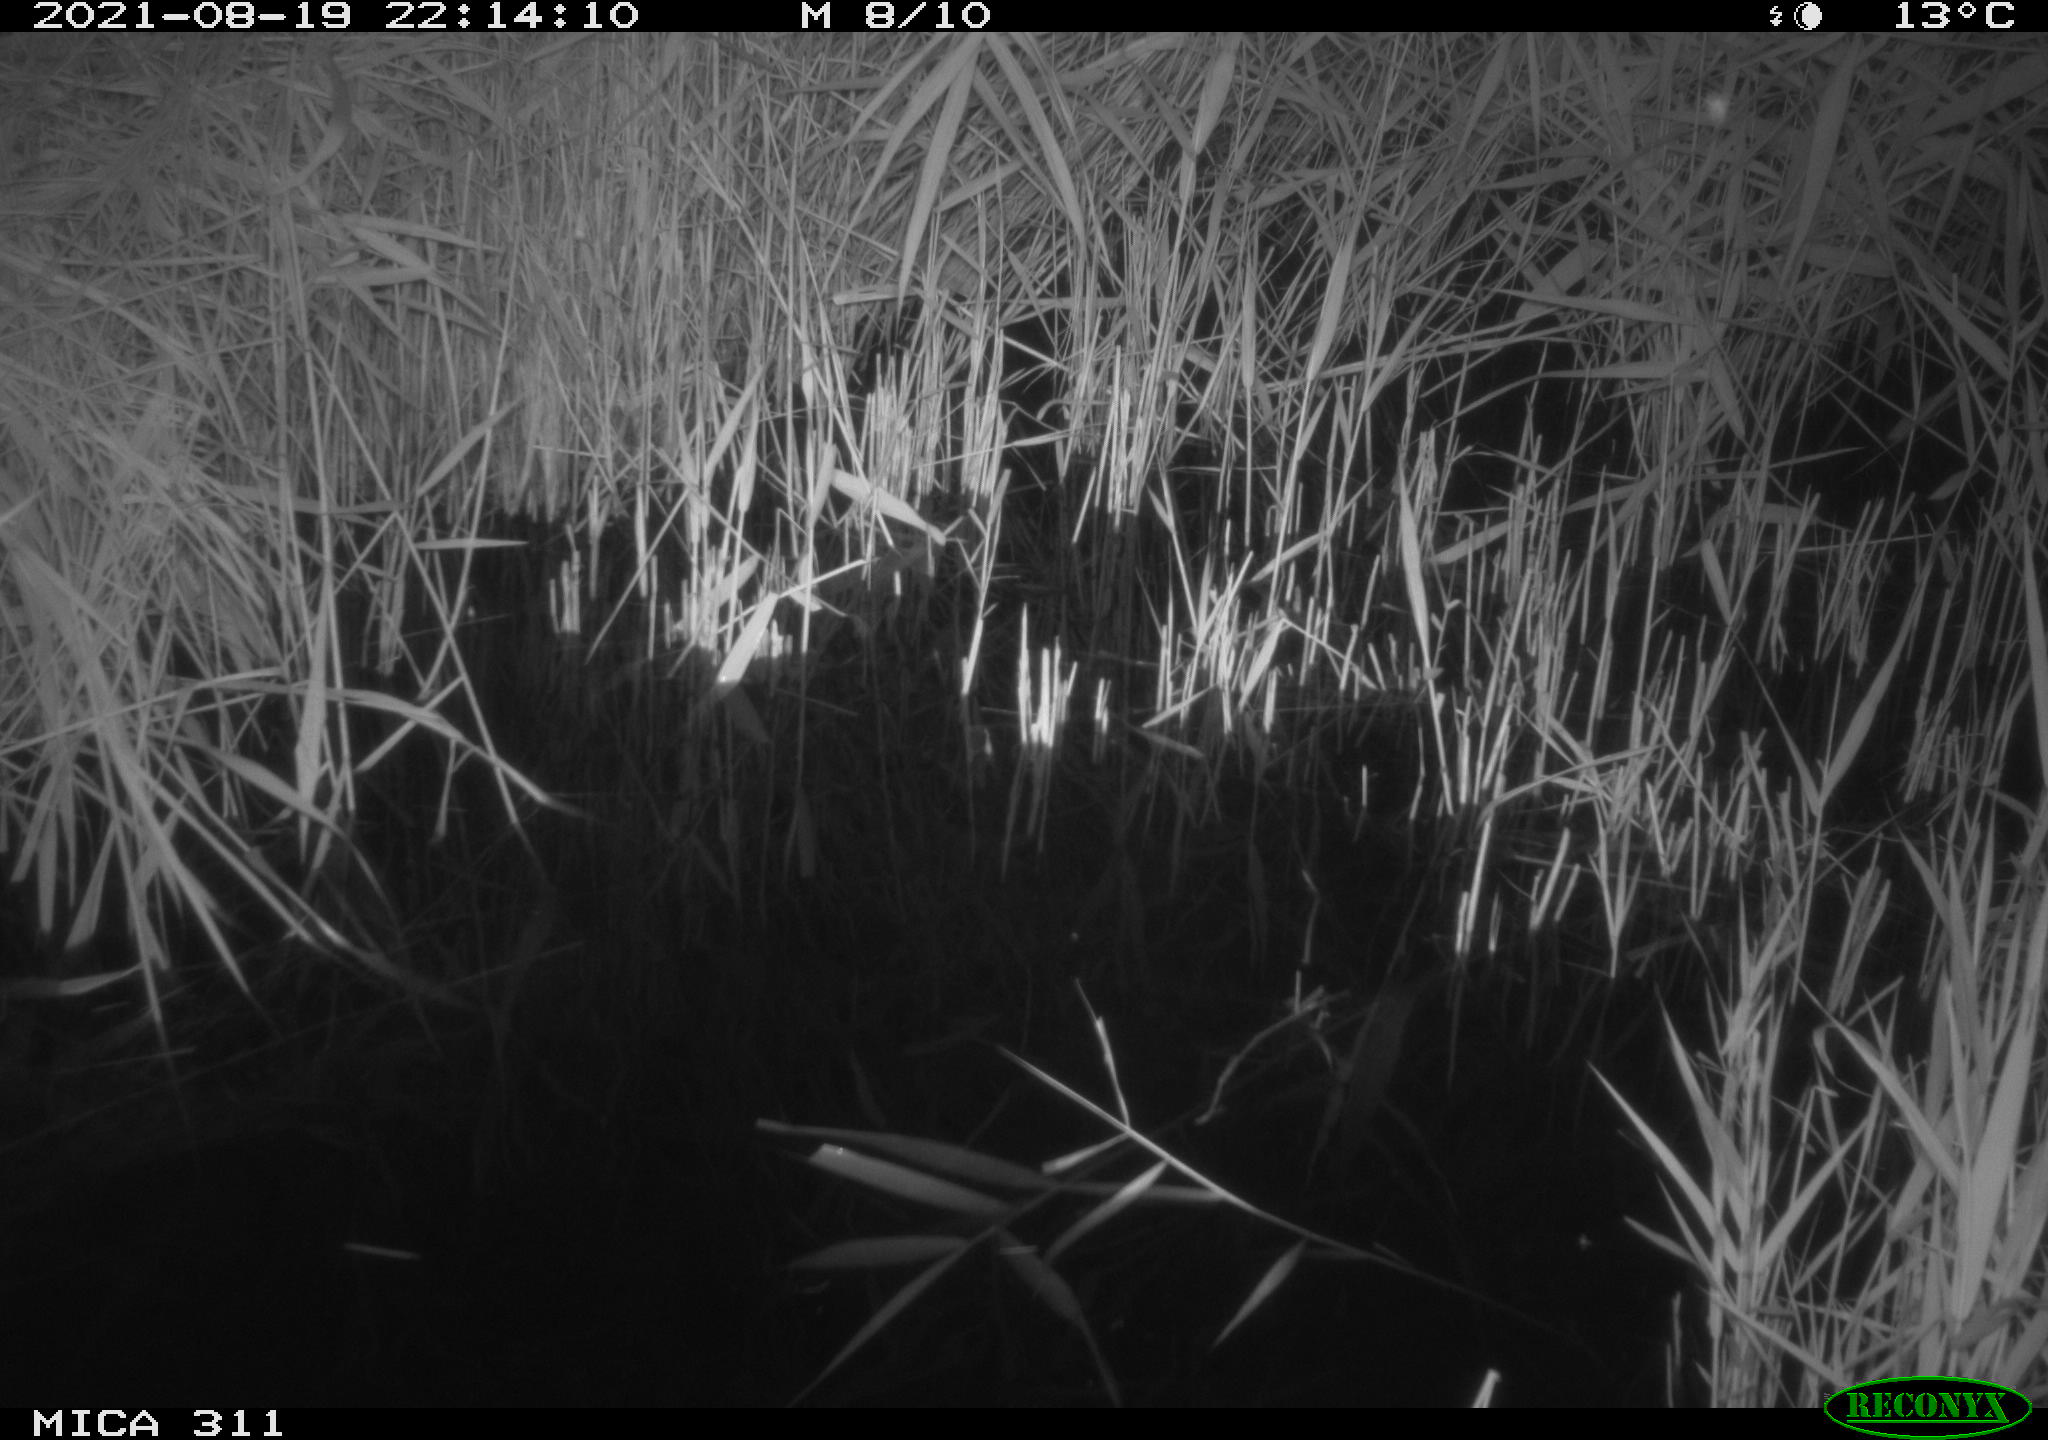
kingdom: Animalia
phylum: Chordata
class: Mammalia
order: Rodentia
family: Muridae
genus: Rattus
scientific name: Rattus norvegicus
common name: Brown rat
